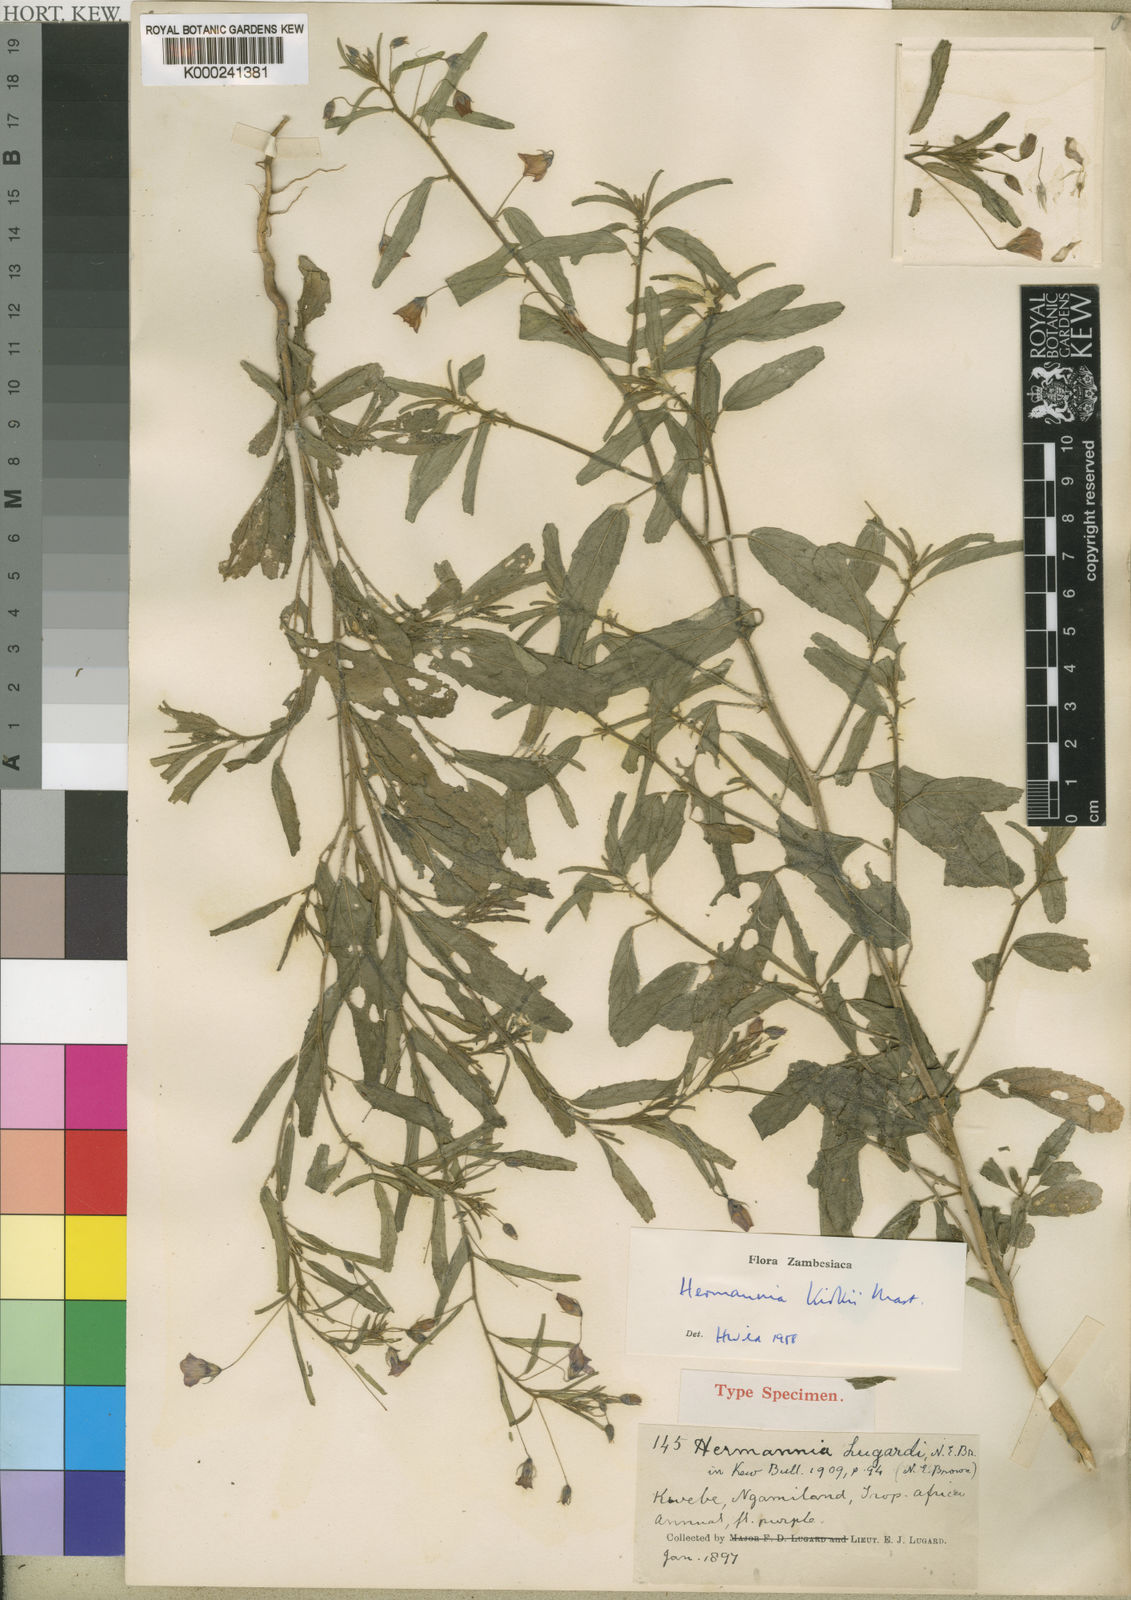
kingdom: Plantae
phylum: Tracheophyta
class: Magnoliopsida
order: Malvales
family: Malvaceae
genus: Hermannia
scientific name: Hermannia modesta
